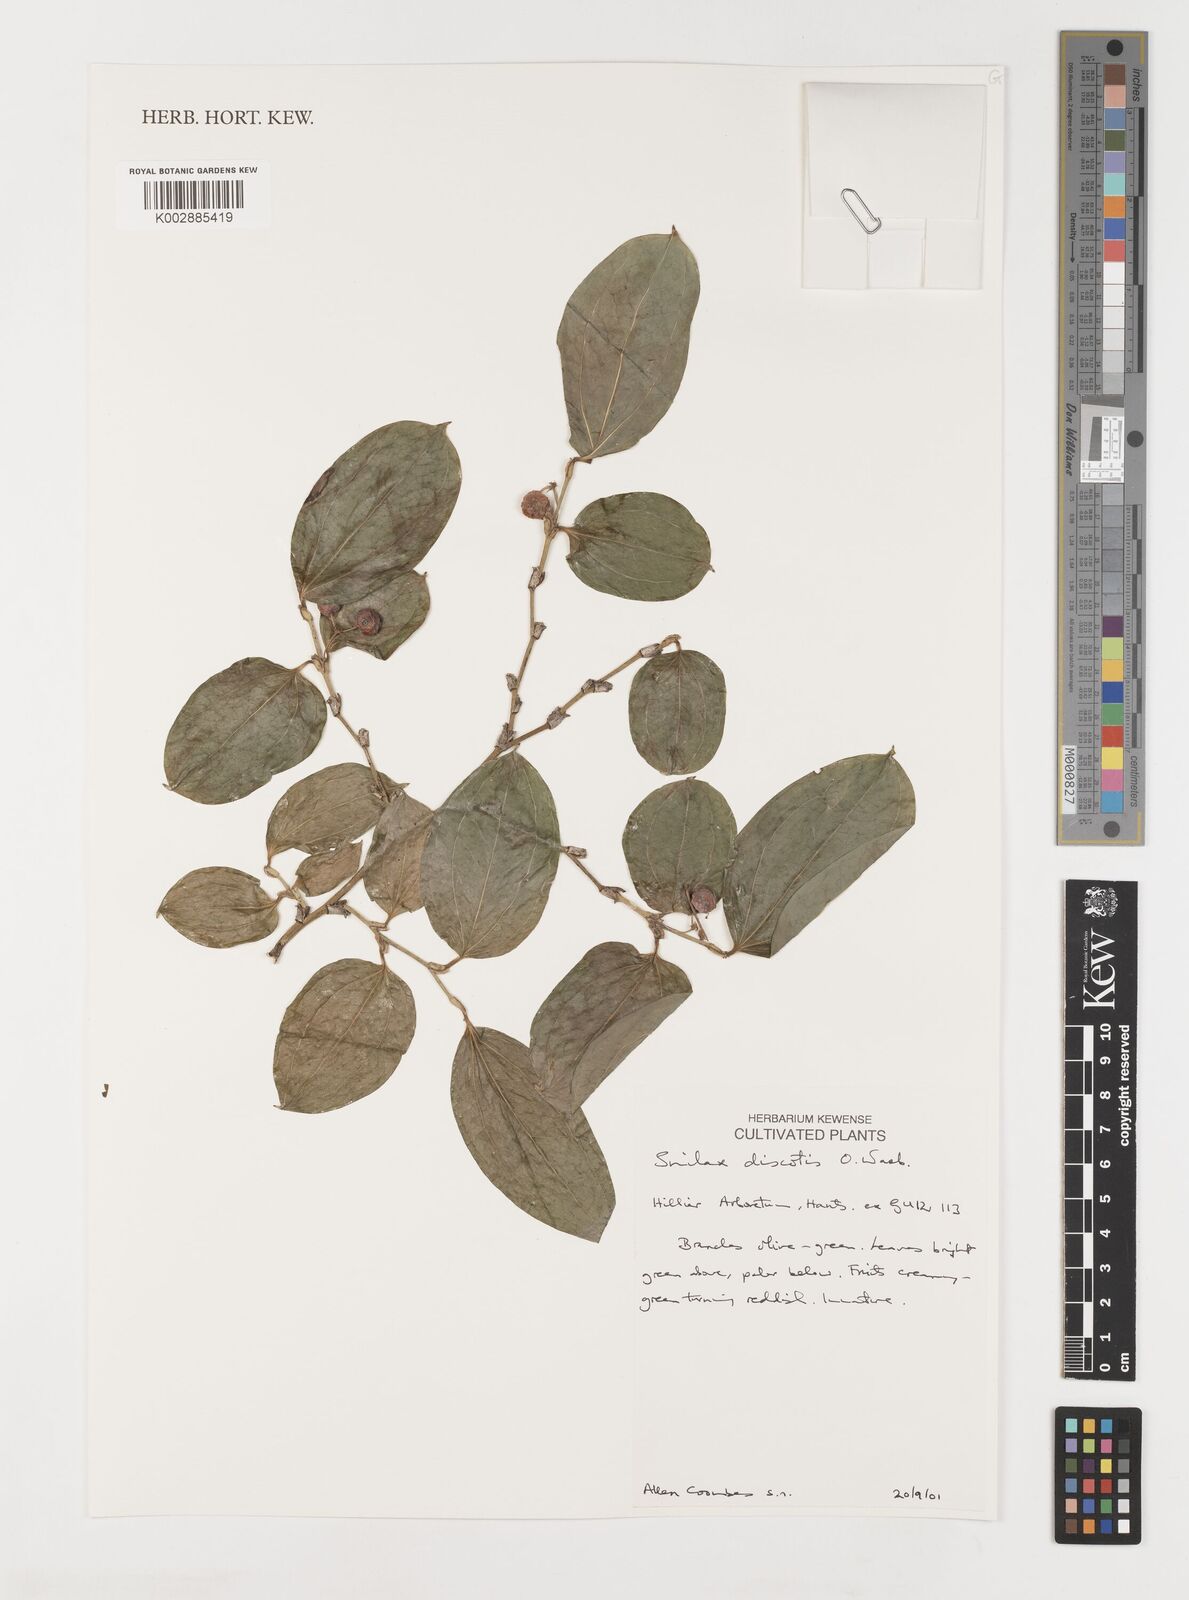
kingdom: Plantae
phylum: Tracheophyta
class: Liliopsida
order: Liliales
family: Smilacaceae
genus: Smilax
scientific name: Smilax discotis
